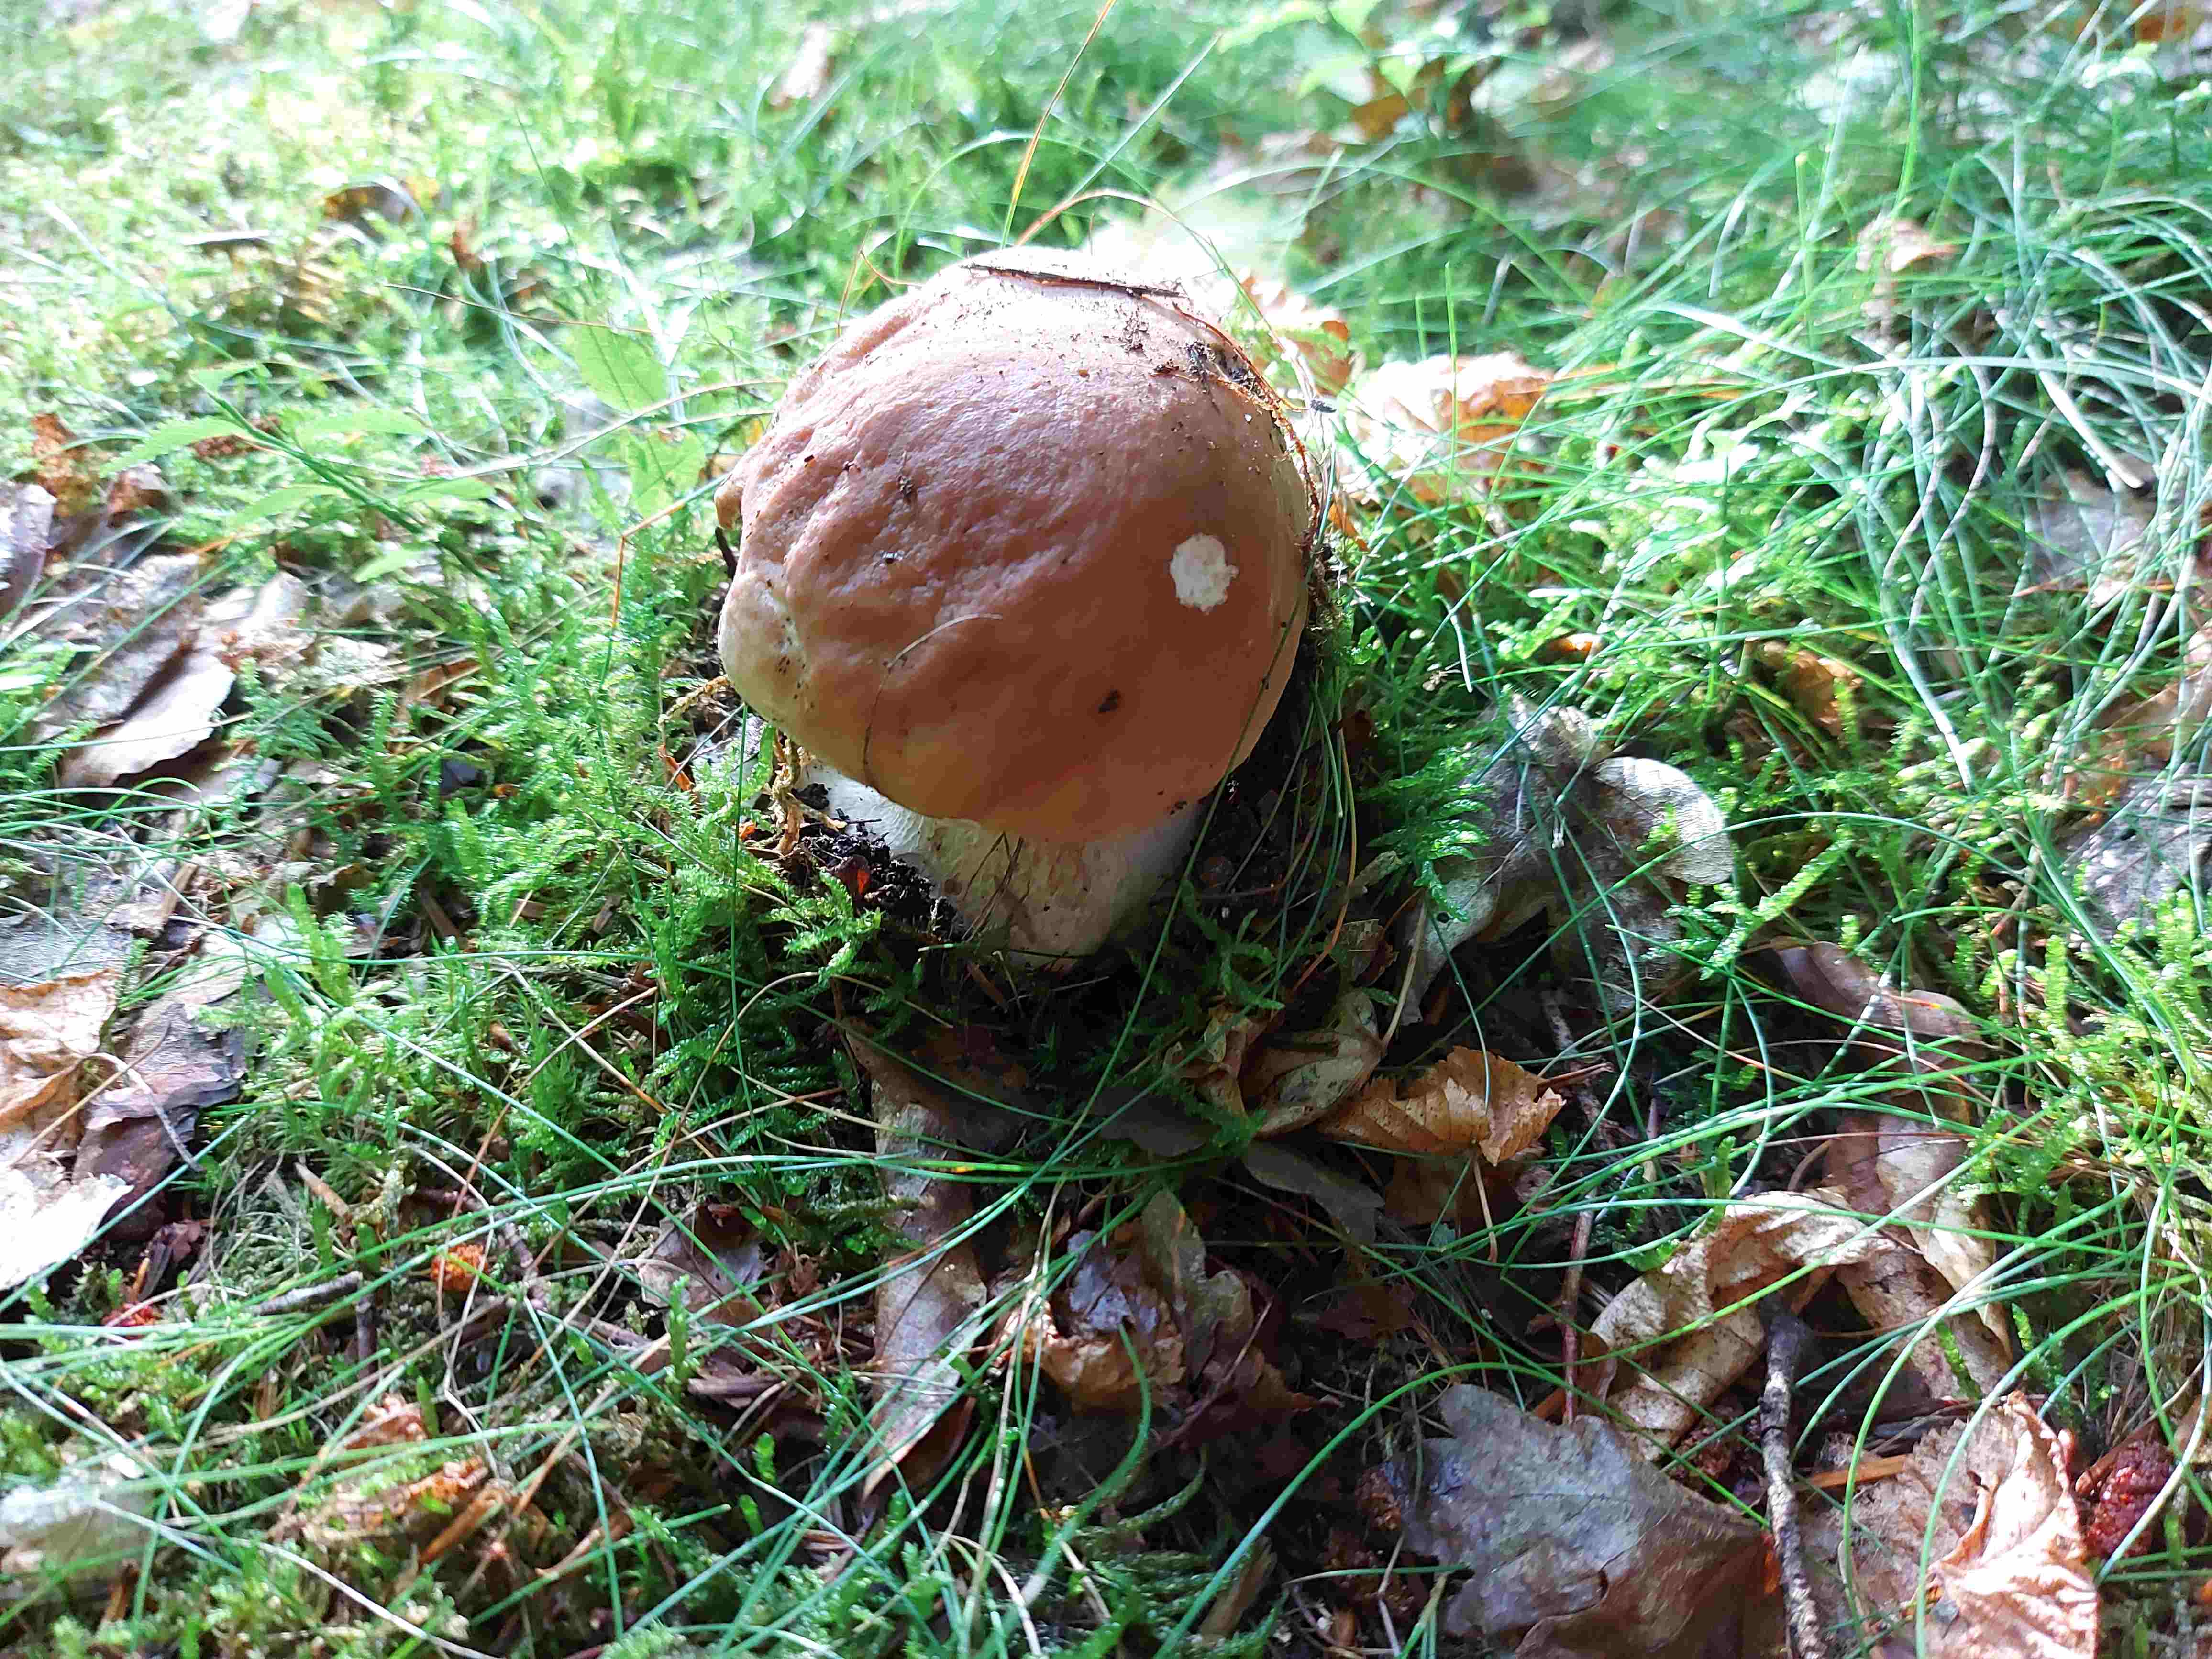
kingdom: Fungi
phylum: Basidiomycota
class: Agaricomycetes
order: Boletales
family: Boletaceae
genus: Boletus
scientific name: Boletus edulis
